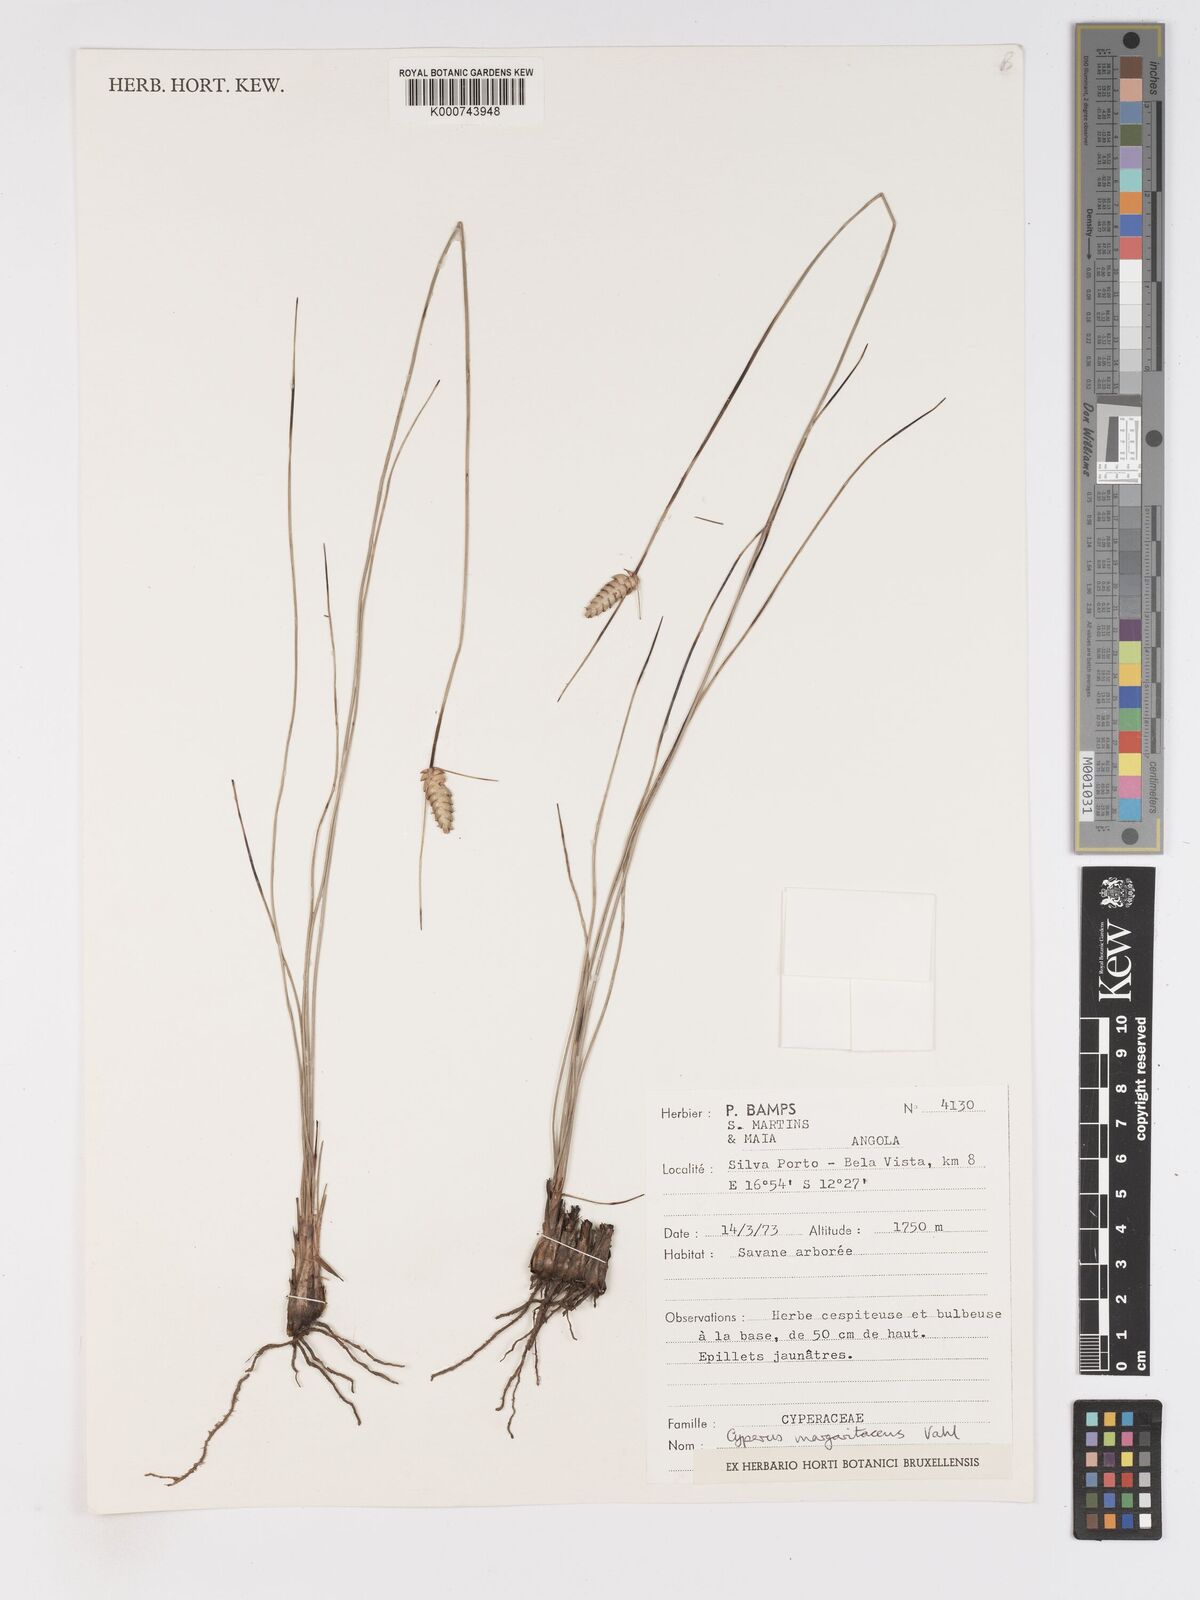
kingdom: Plantae
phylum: Tracheophyta
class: Liliopsida
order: Poales
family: Cyperaceae
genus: Cyperus
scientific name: Cyperus margaritaceus
